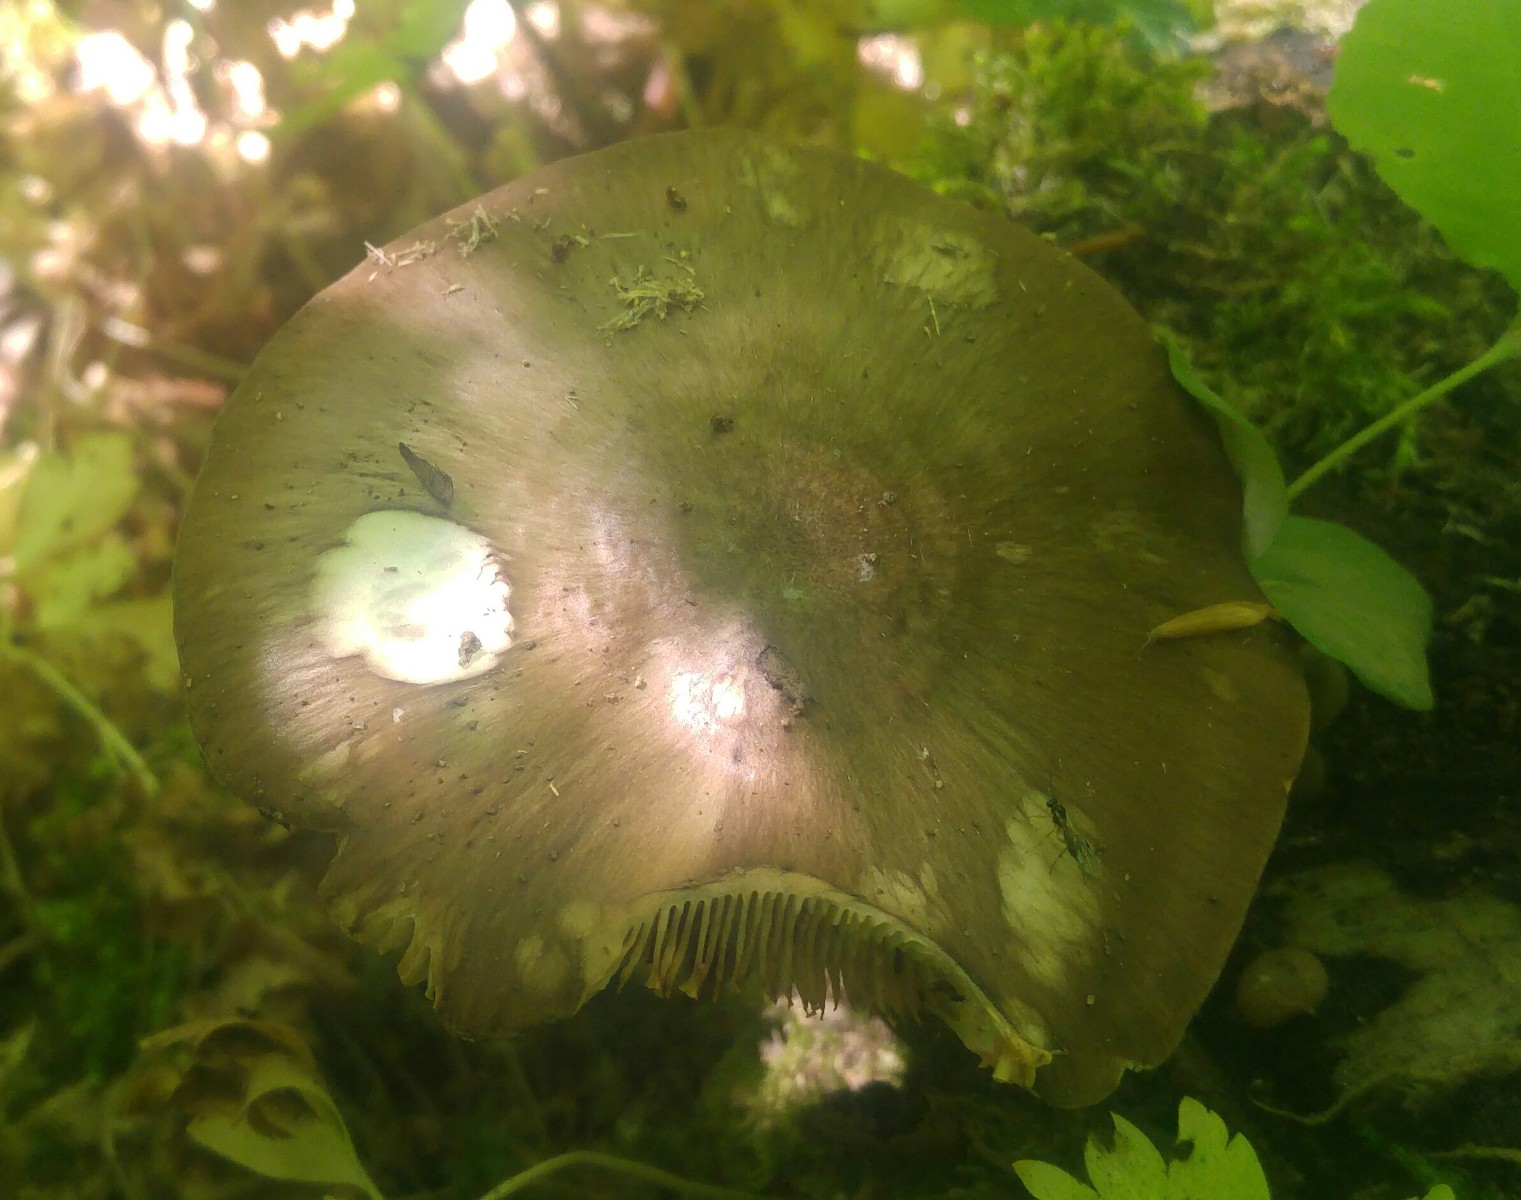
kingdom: Fungi
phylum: Basidiomycota
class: Agaricomycetes
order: Agaricales
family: Pluteaceae
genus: Pluteus
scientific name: Pluteus cervinus
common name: sodfarvet skærmhat
